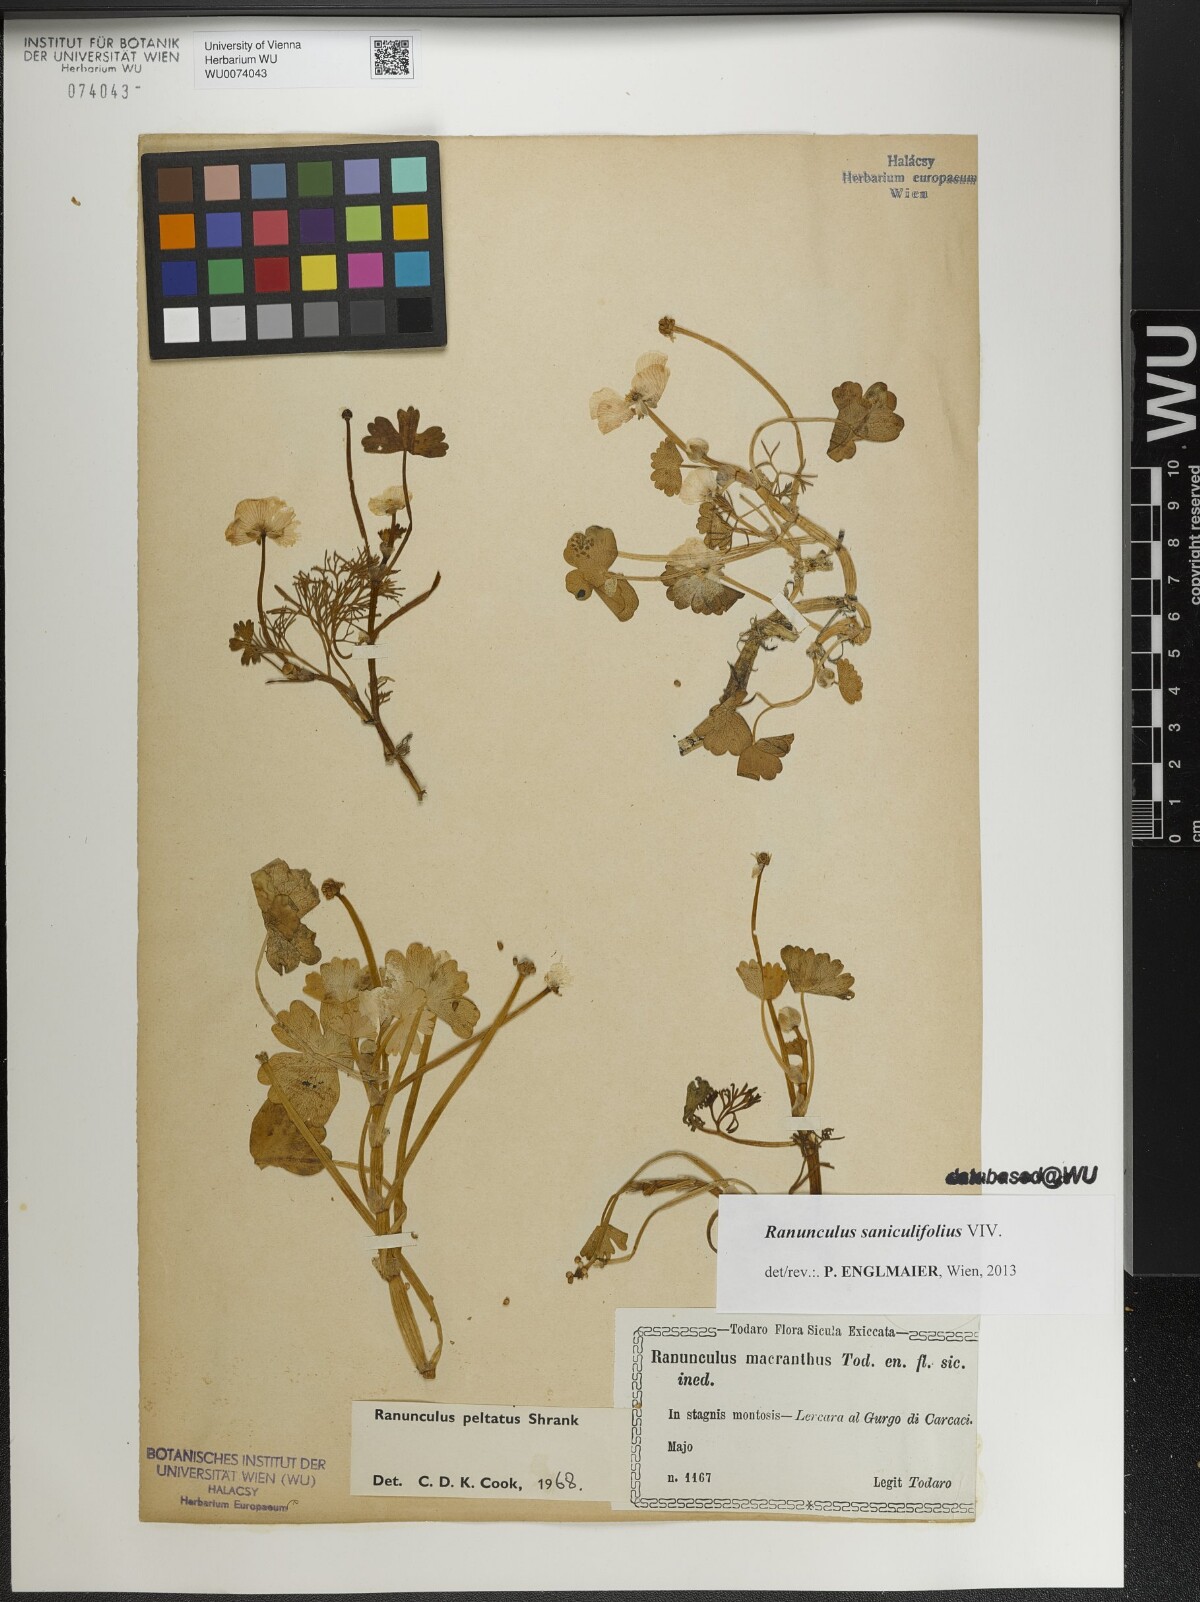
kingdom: Plantae
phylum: Tracheophyta
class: Magnoliopsida
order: Ranunculales
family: Ranunculaceae
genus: Ranunculus
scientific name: Ranunculus peltatus
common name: Pond water-crowfoot
